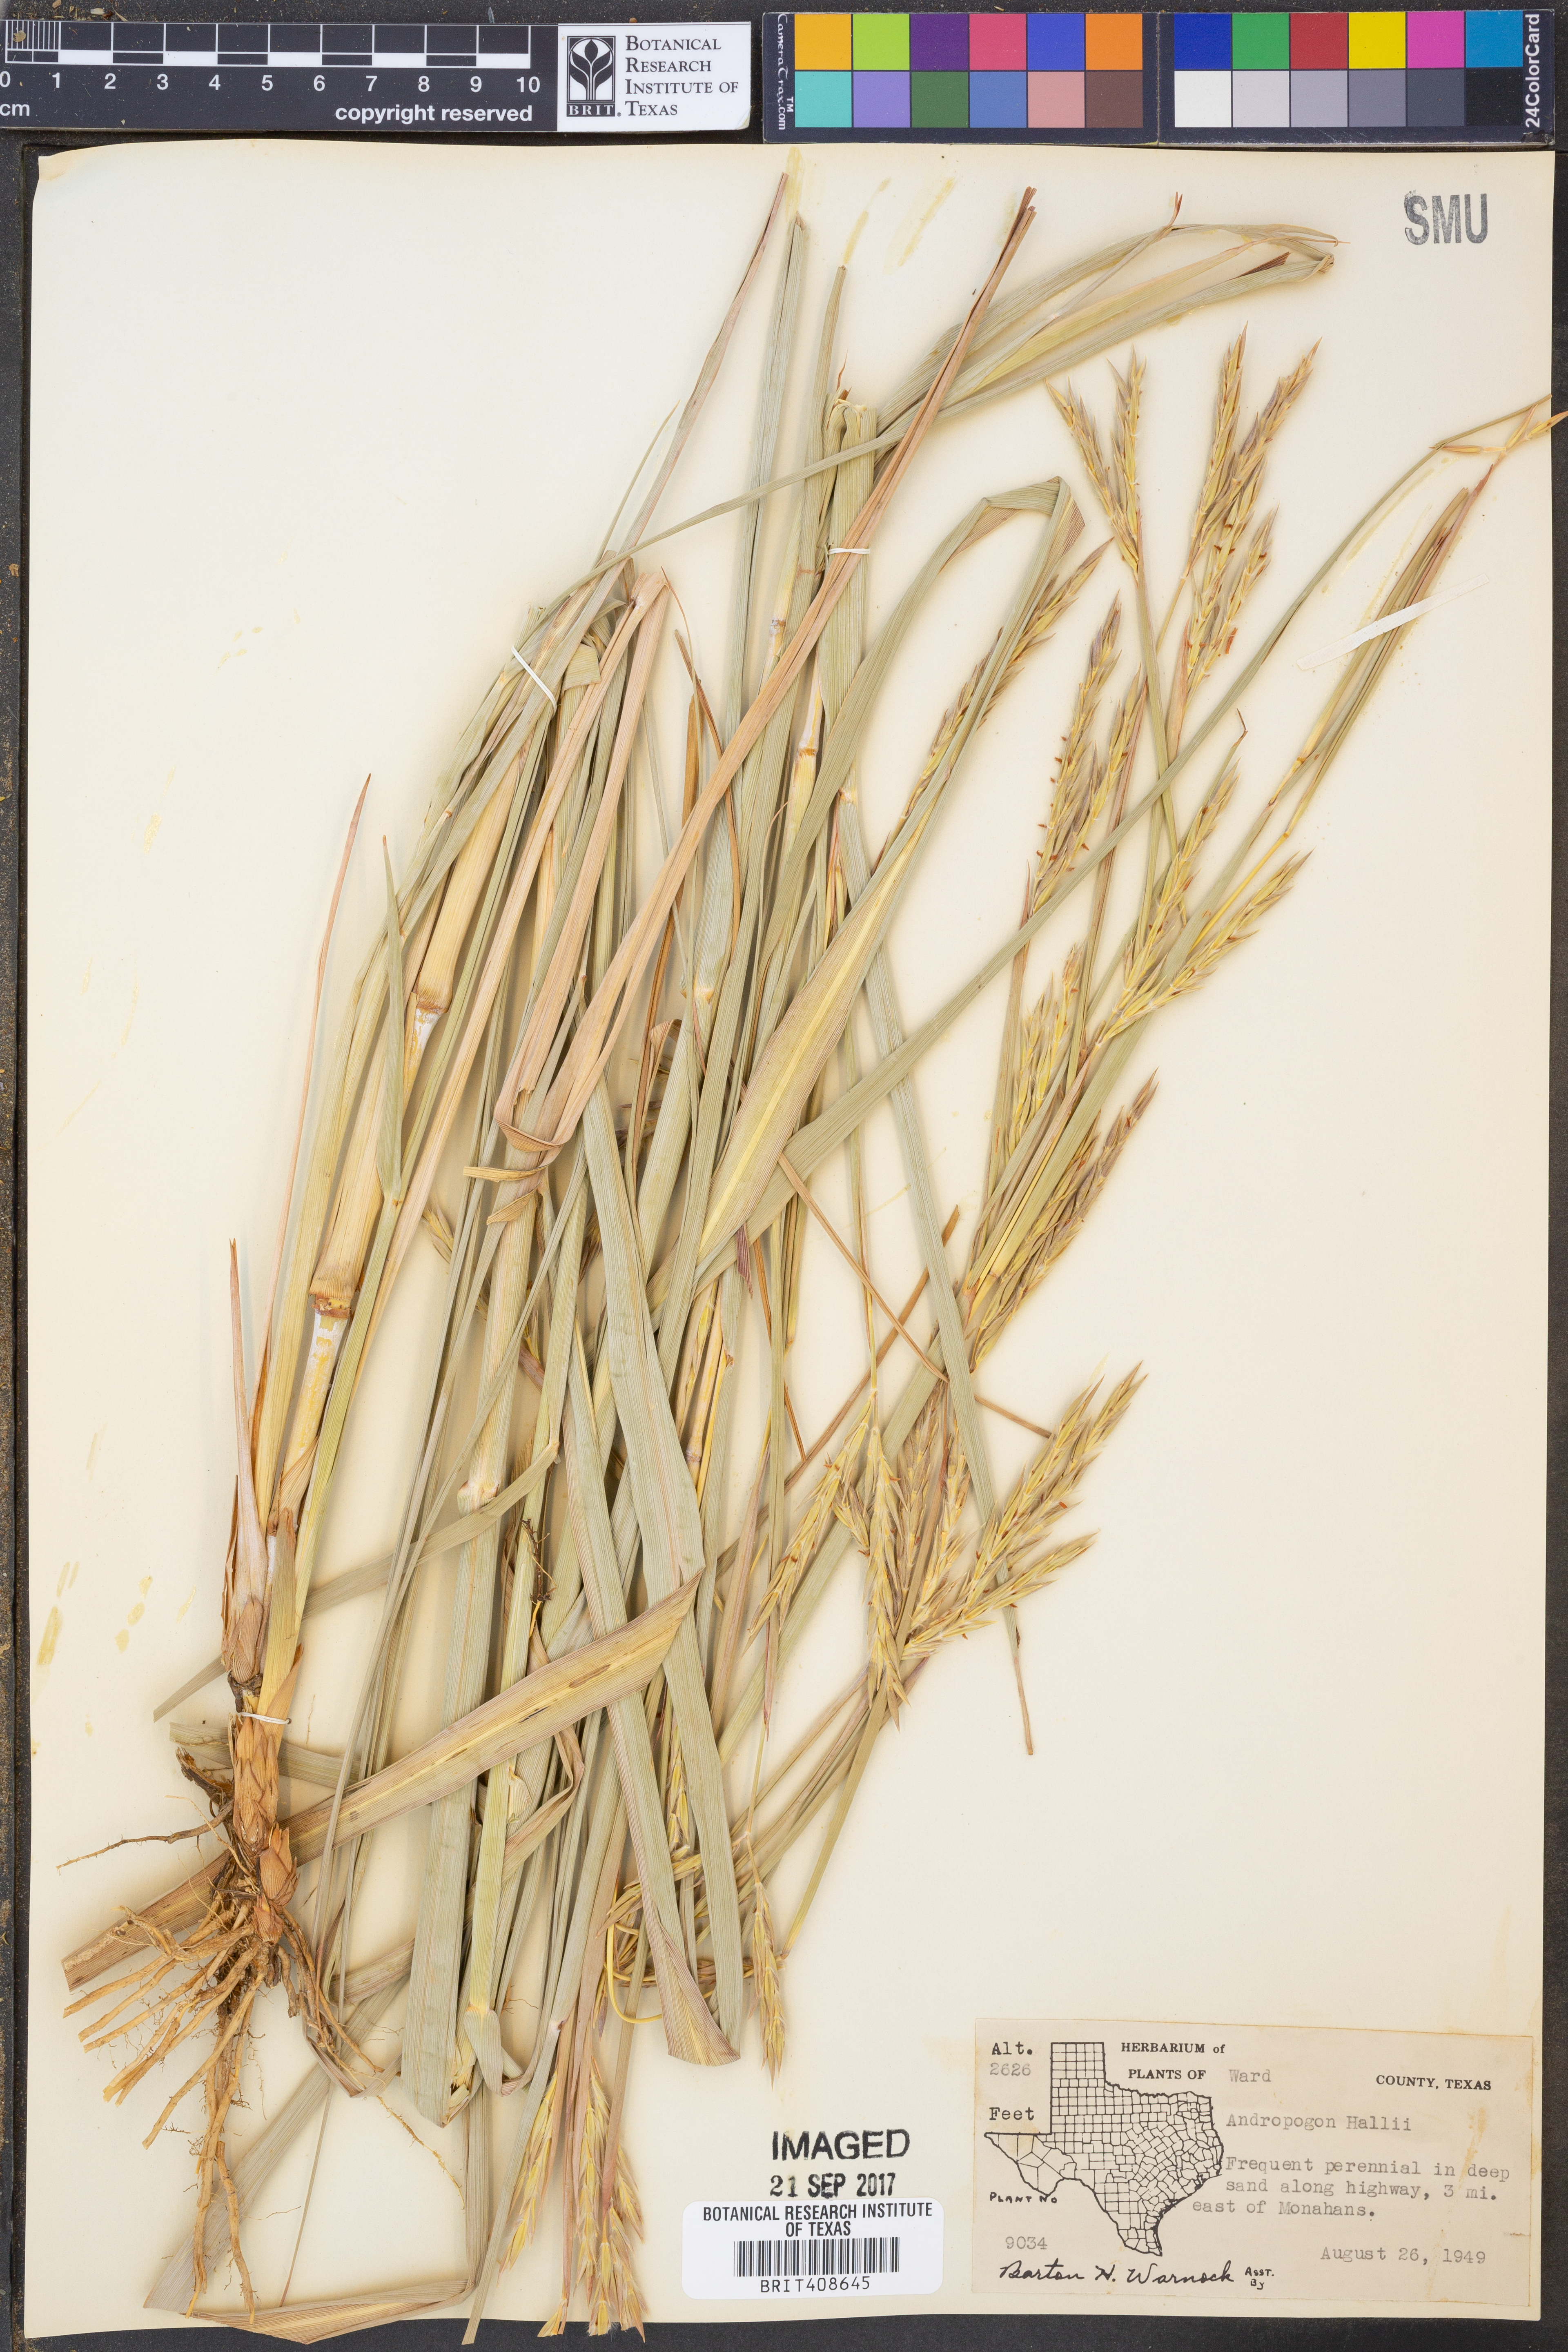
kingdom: Plantae
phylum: Tracheophyta
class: Liliopsida
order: Poales
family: Poaceae
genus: Andropogon
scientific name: Andropogon hallii
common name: Sand bluestem
